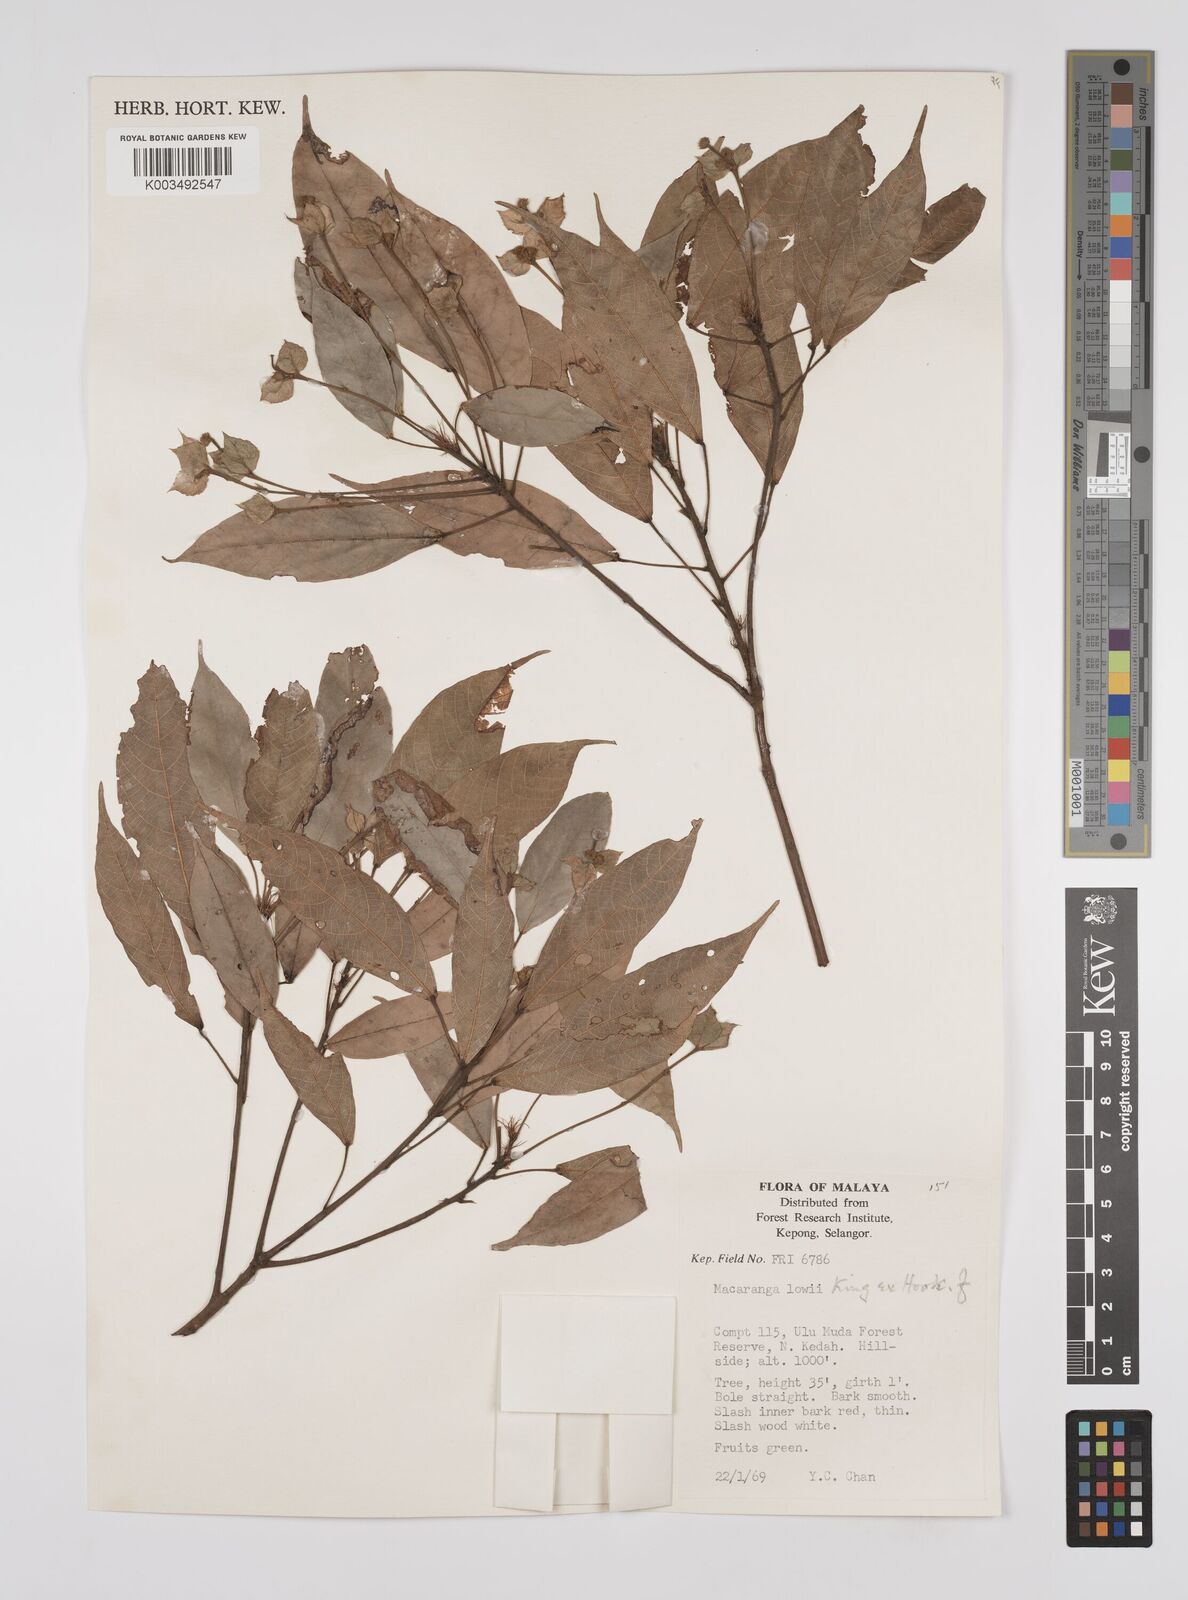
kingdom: Plantae
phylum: Tracheophyta
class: Magnoliopsida
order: Malpighiales
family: Euphorbiaceae
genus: Macaranga
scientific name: Macaranga lowii
